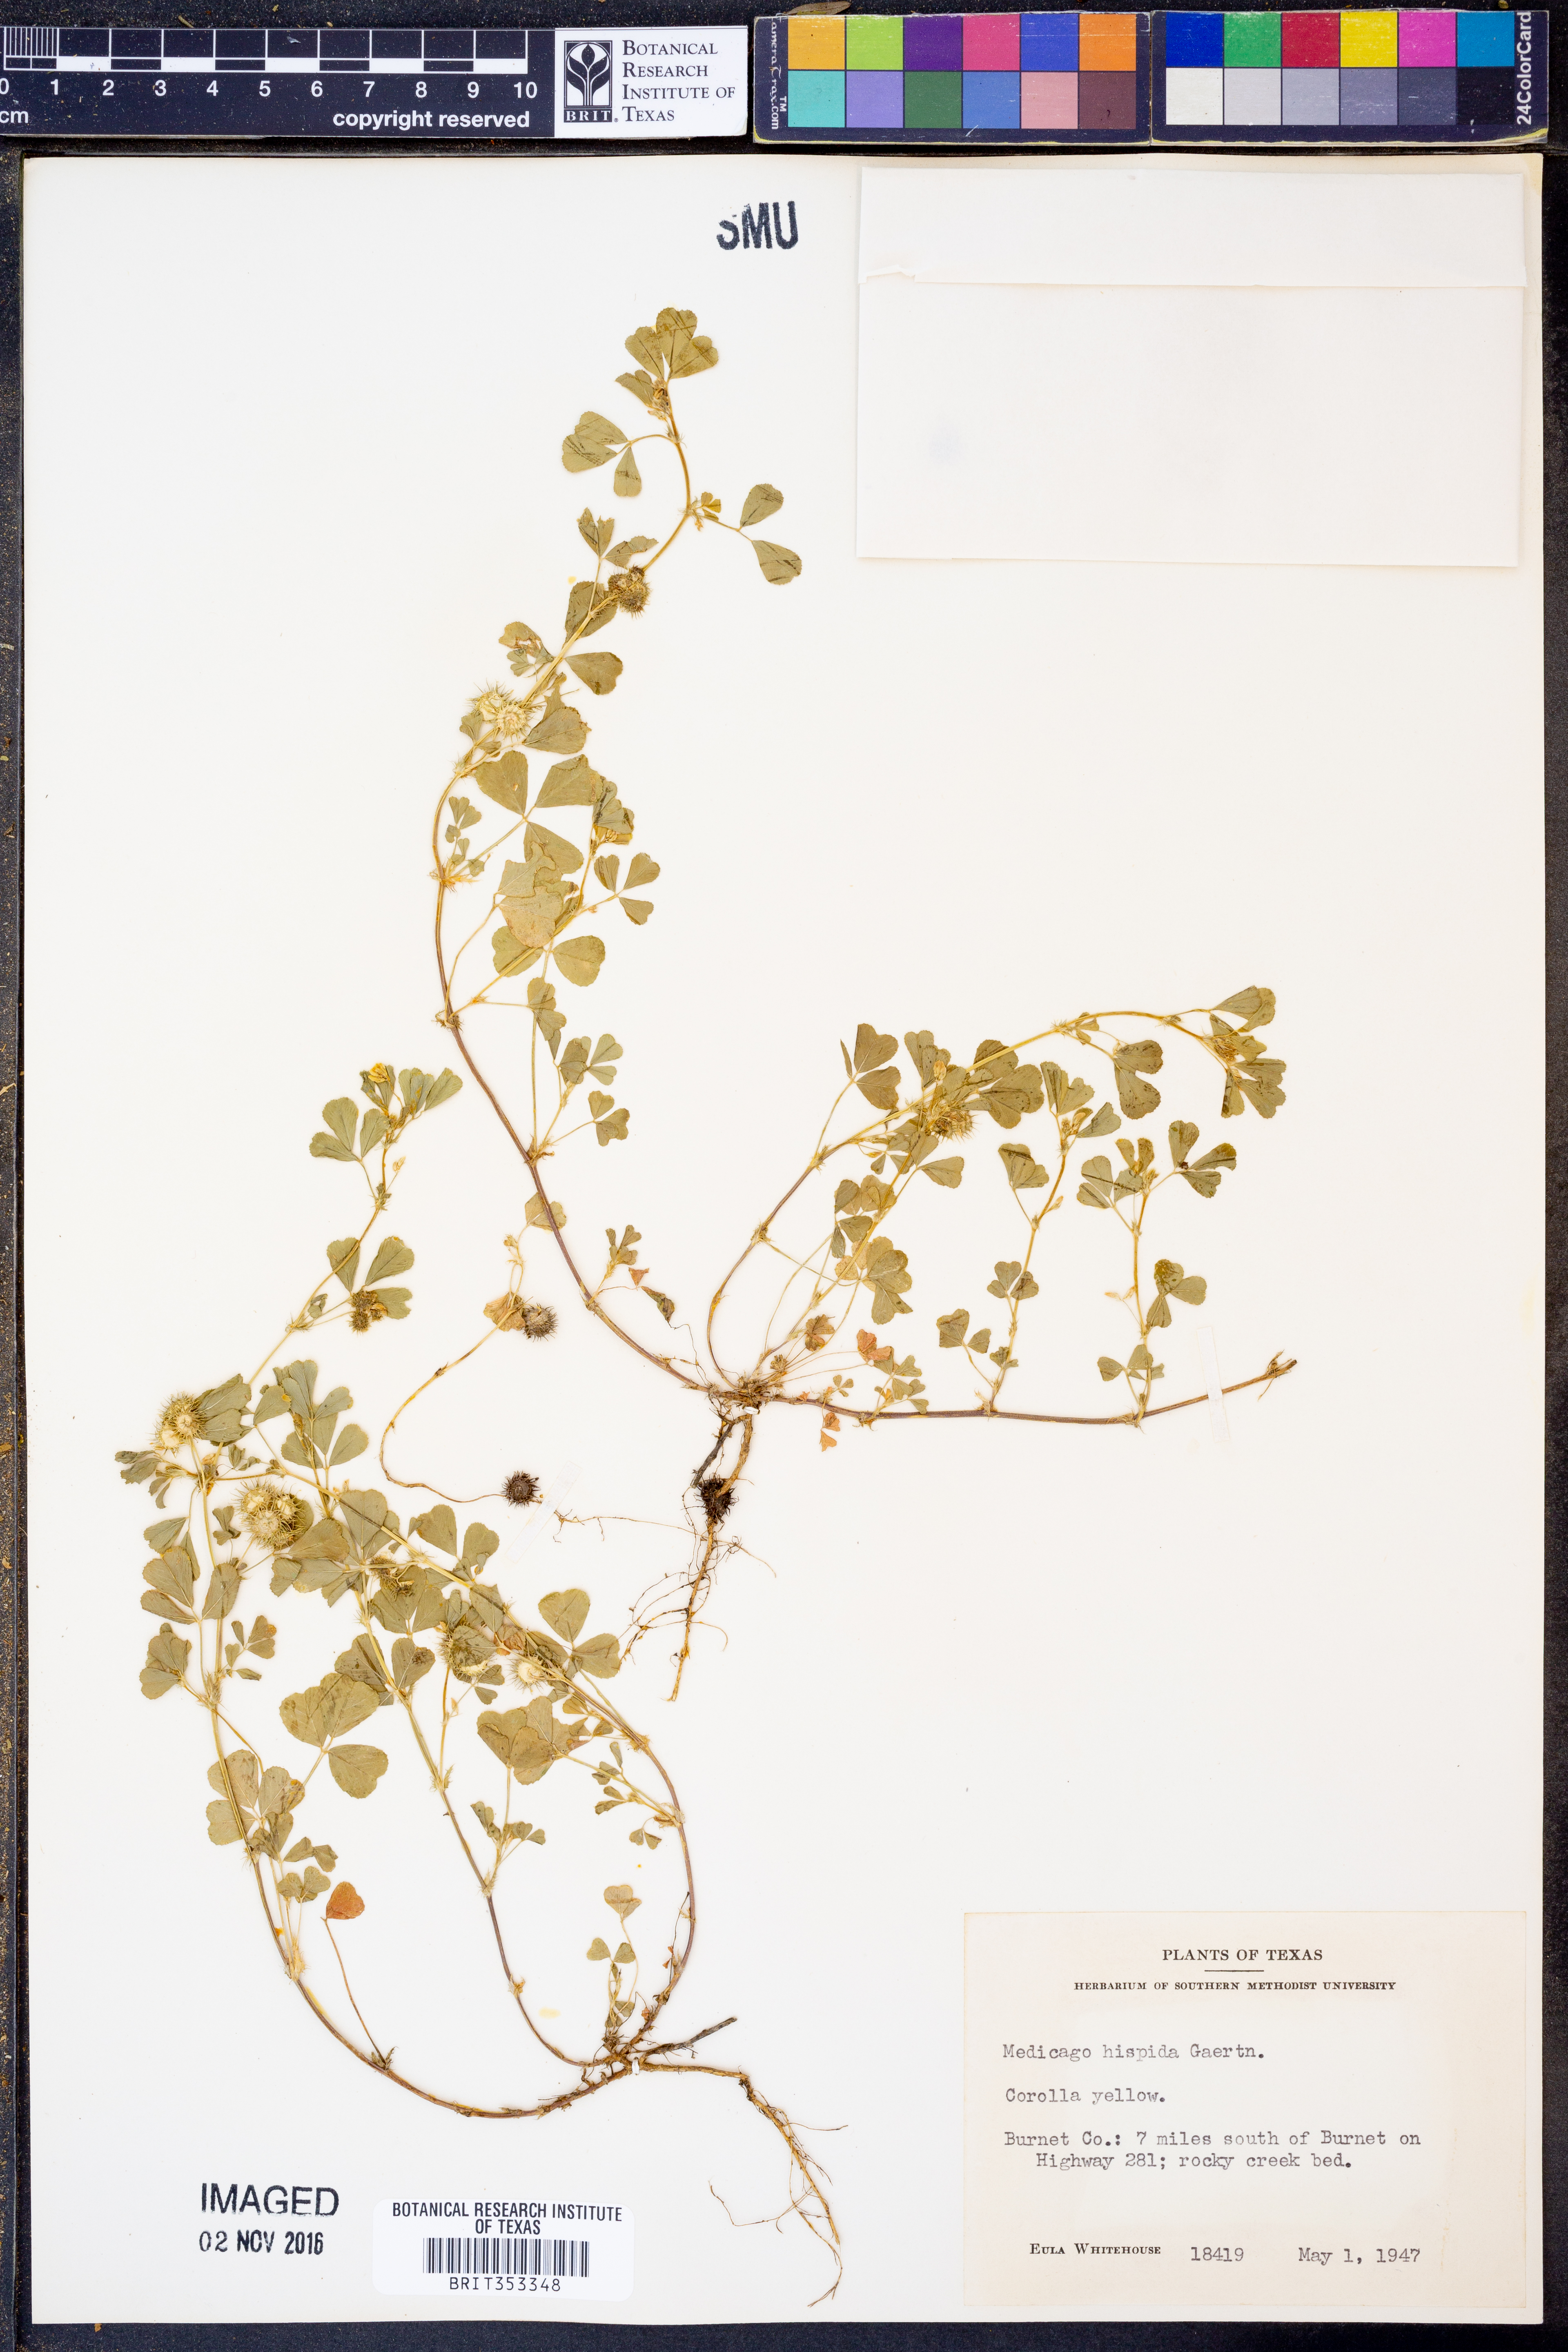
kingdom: Plantae
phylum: Tracheophyta
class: Magnoliopsida
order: Fabales
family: Fabaceae
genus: Medicago
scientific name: Medicago polymorpha
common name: Burclover
